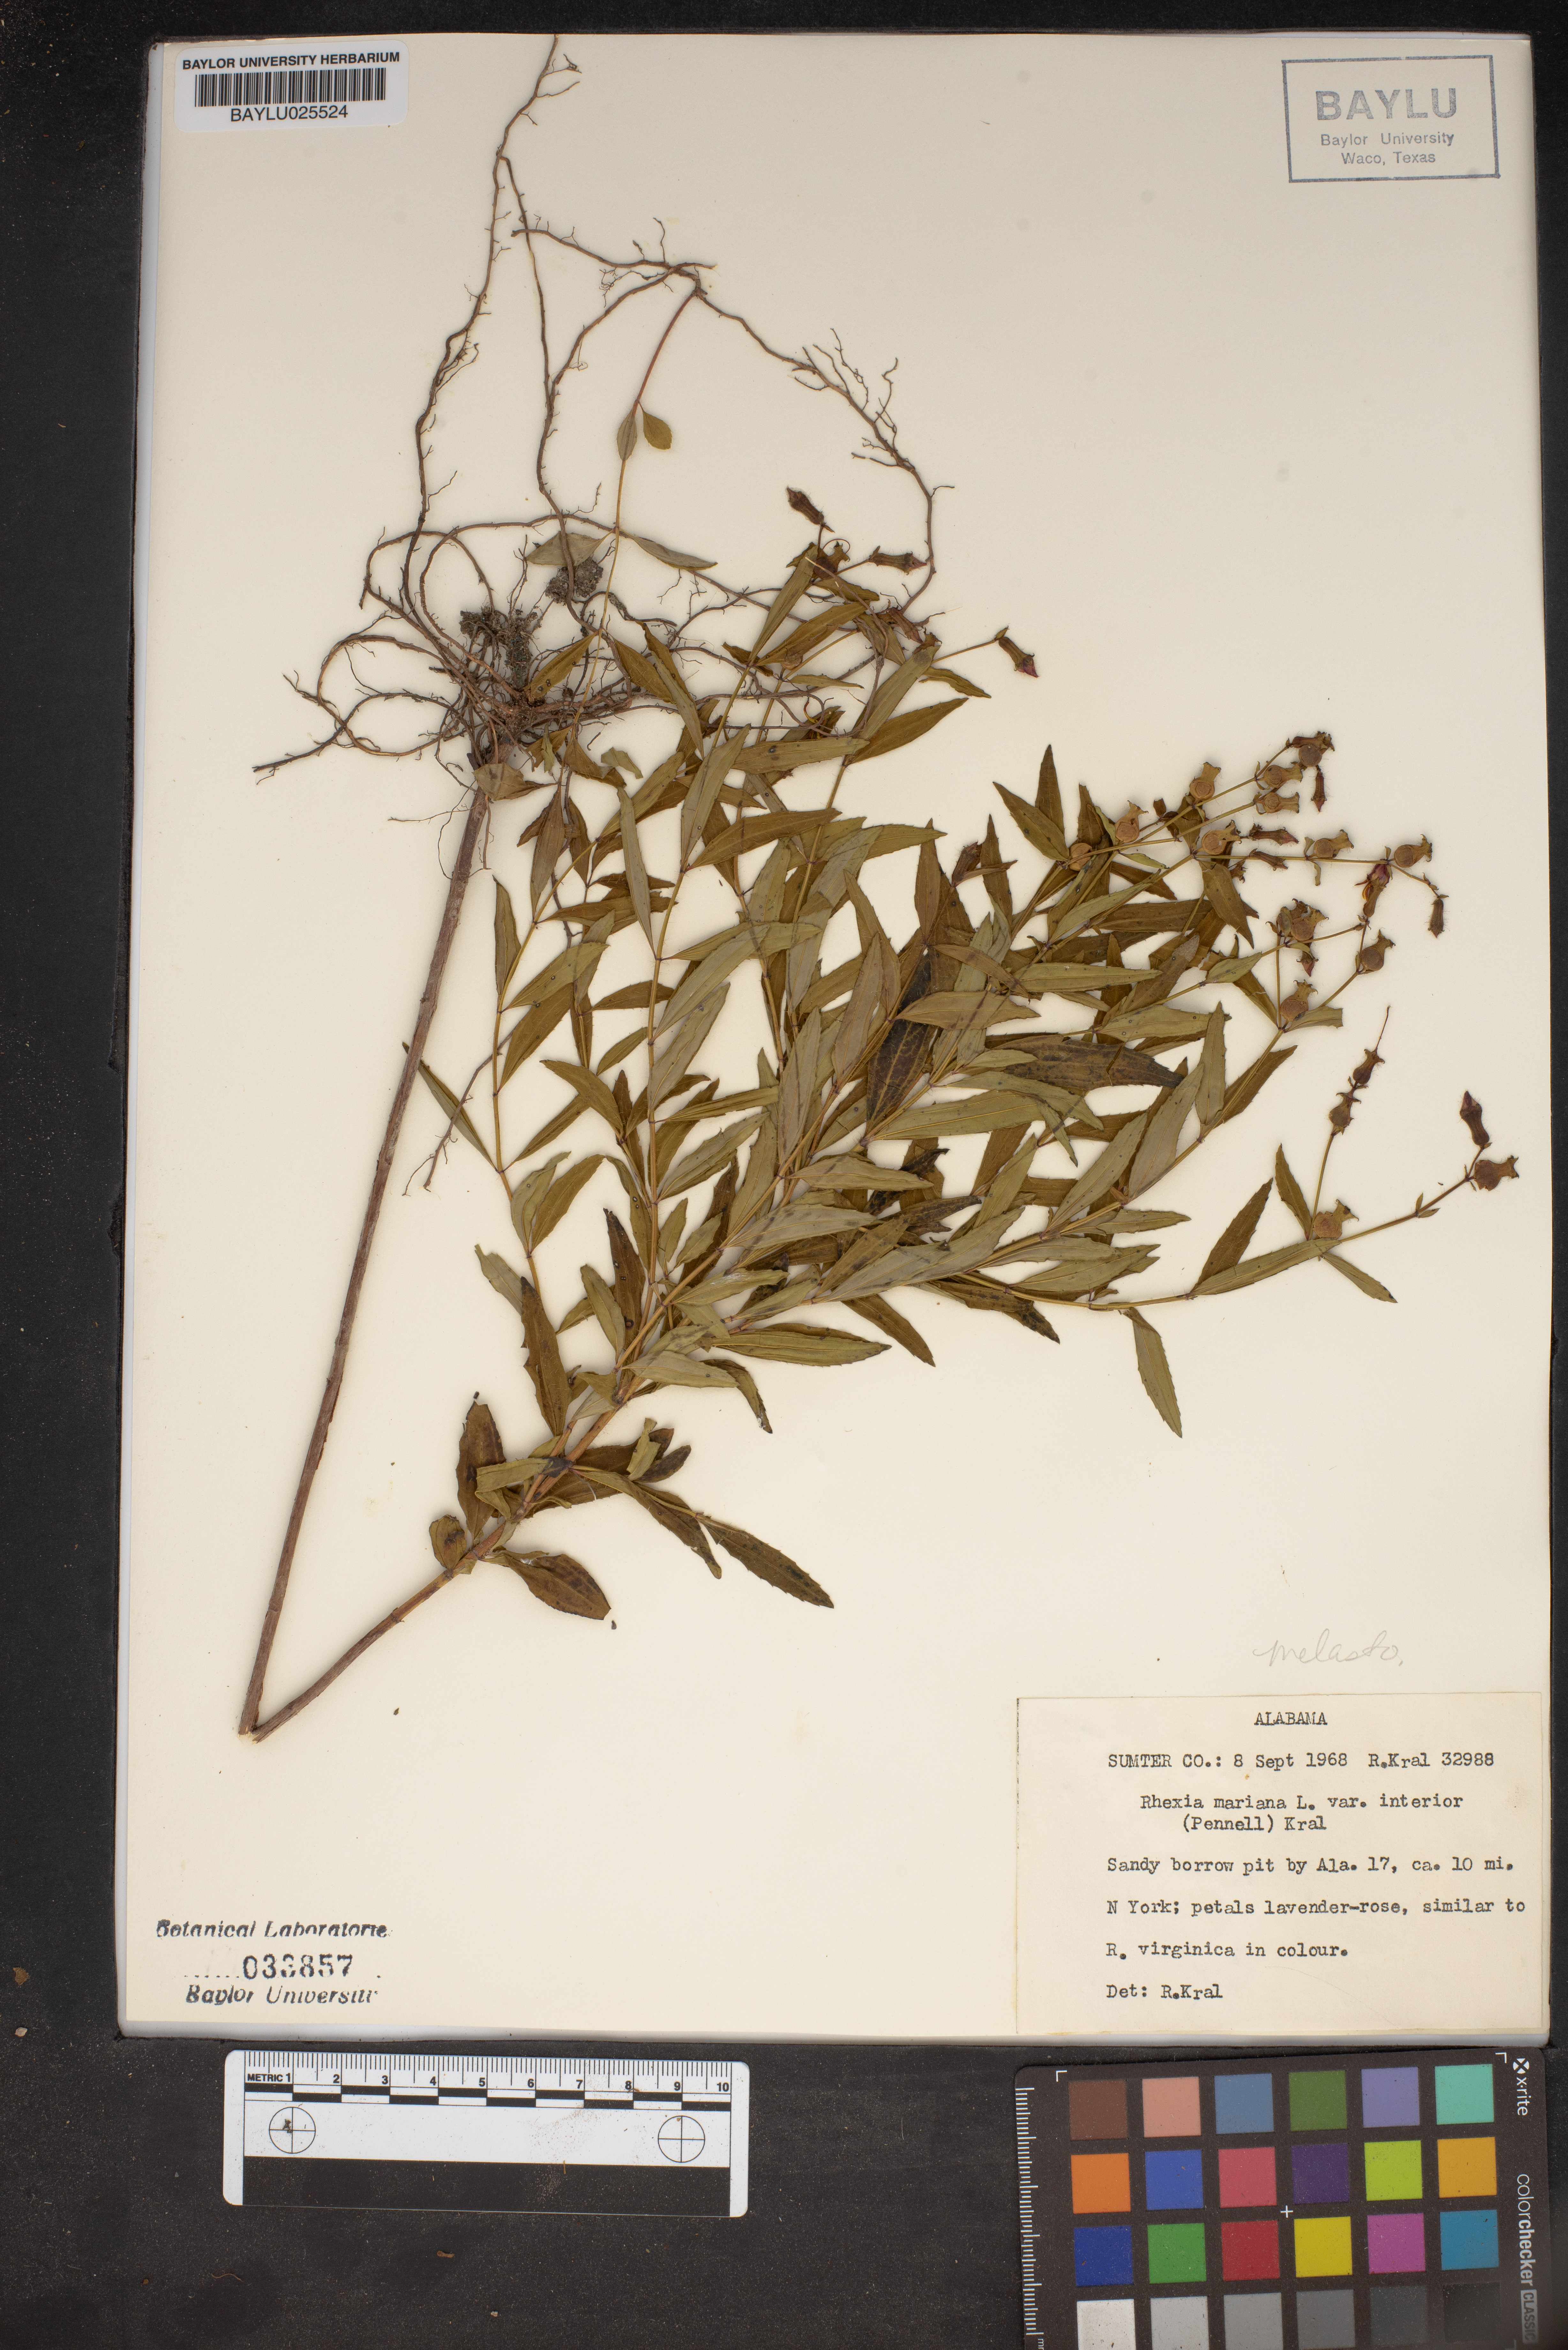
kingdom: Plantae
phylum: Tracheophyta
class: Magnoliopsida
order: Myrtales
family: Melastomataceae
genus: Rhexia
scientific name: Rhexia mariana
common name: Dull meadow-pitcher
